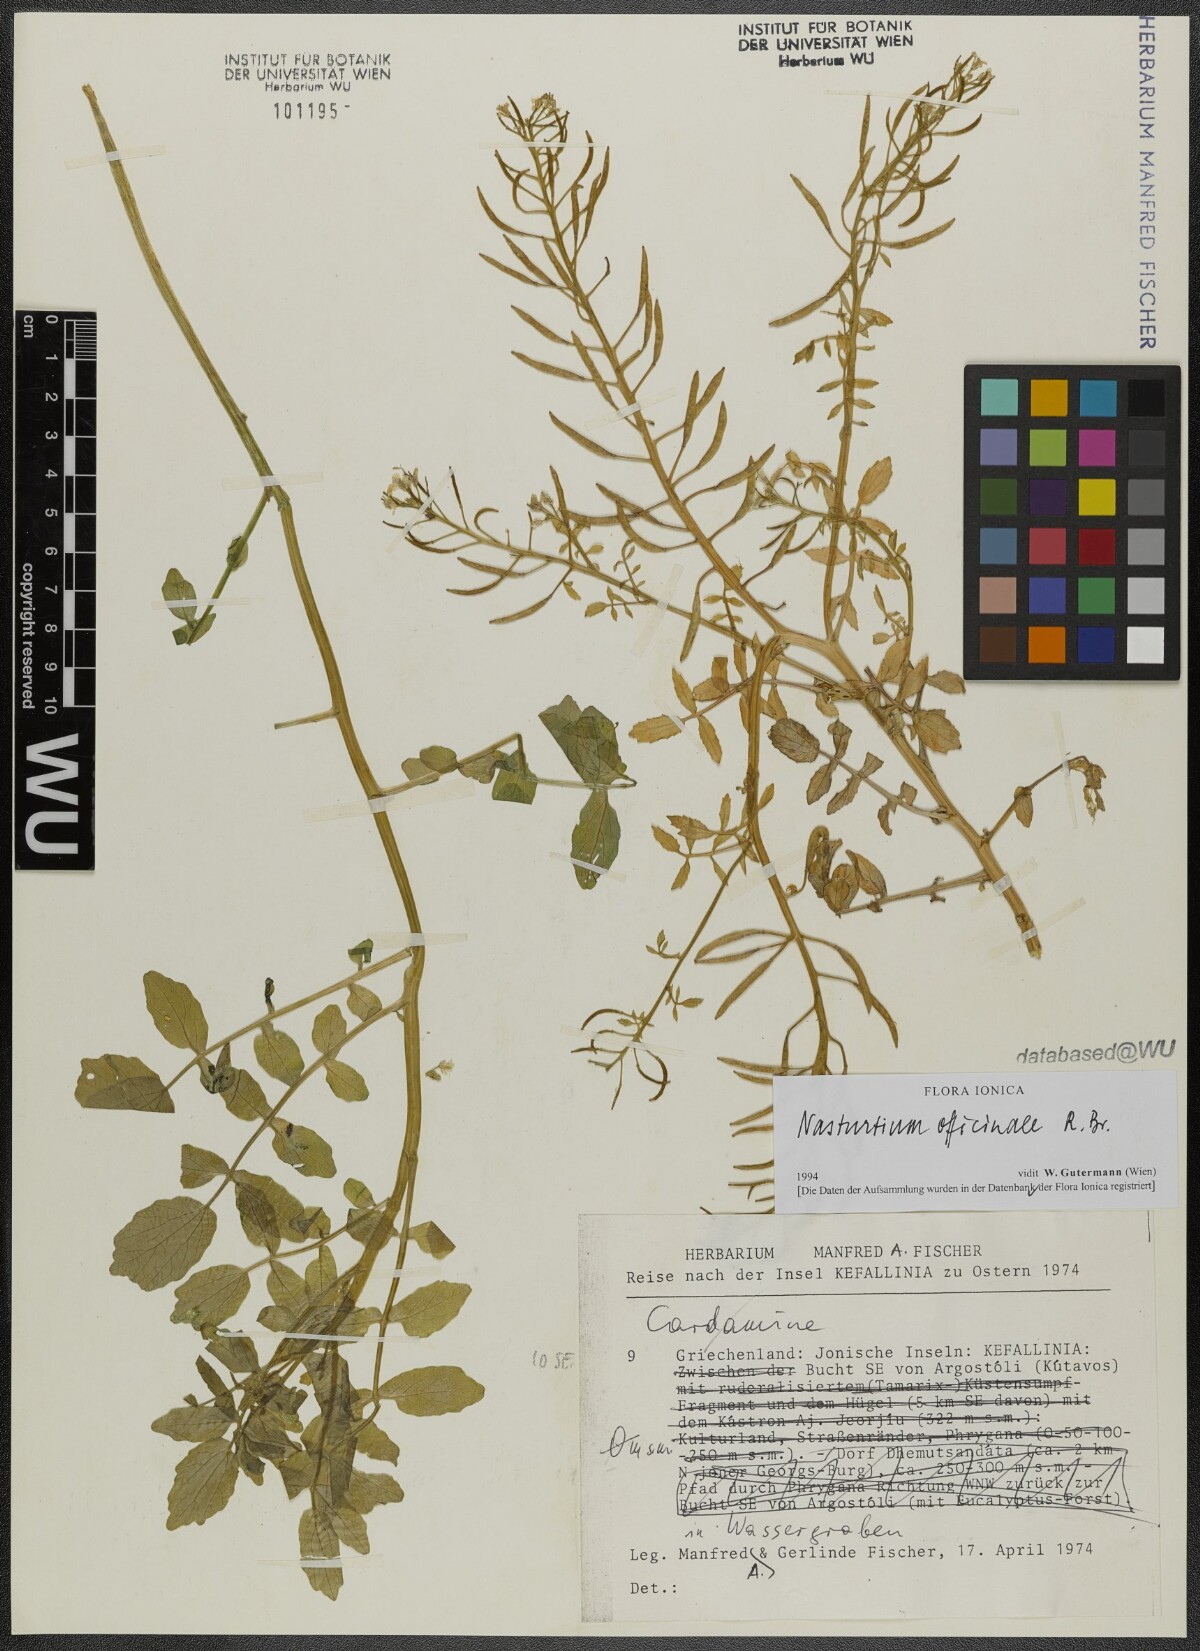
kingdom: Plantae
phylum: Tracheophyta
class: Magnoliopsida
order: Brassicales
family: Brassicaceae
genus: Nasturtium
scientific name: Nasturtium officinale
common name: Watercress
